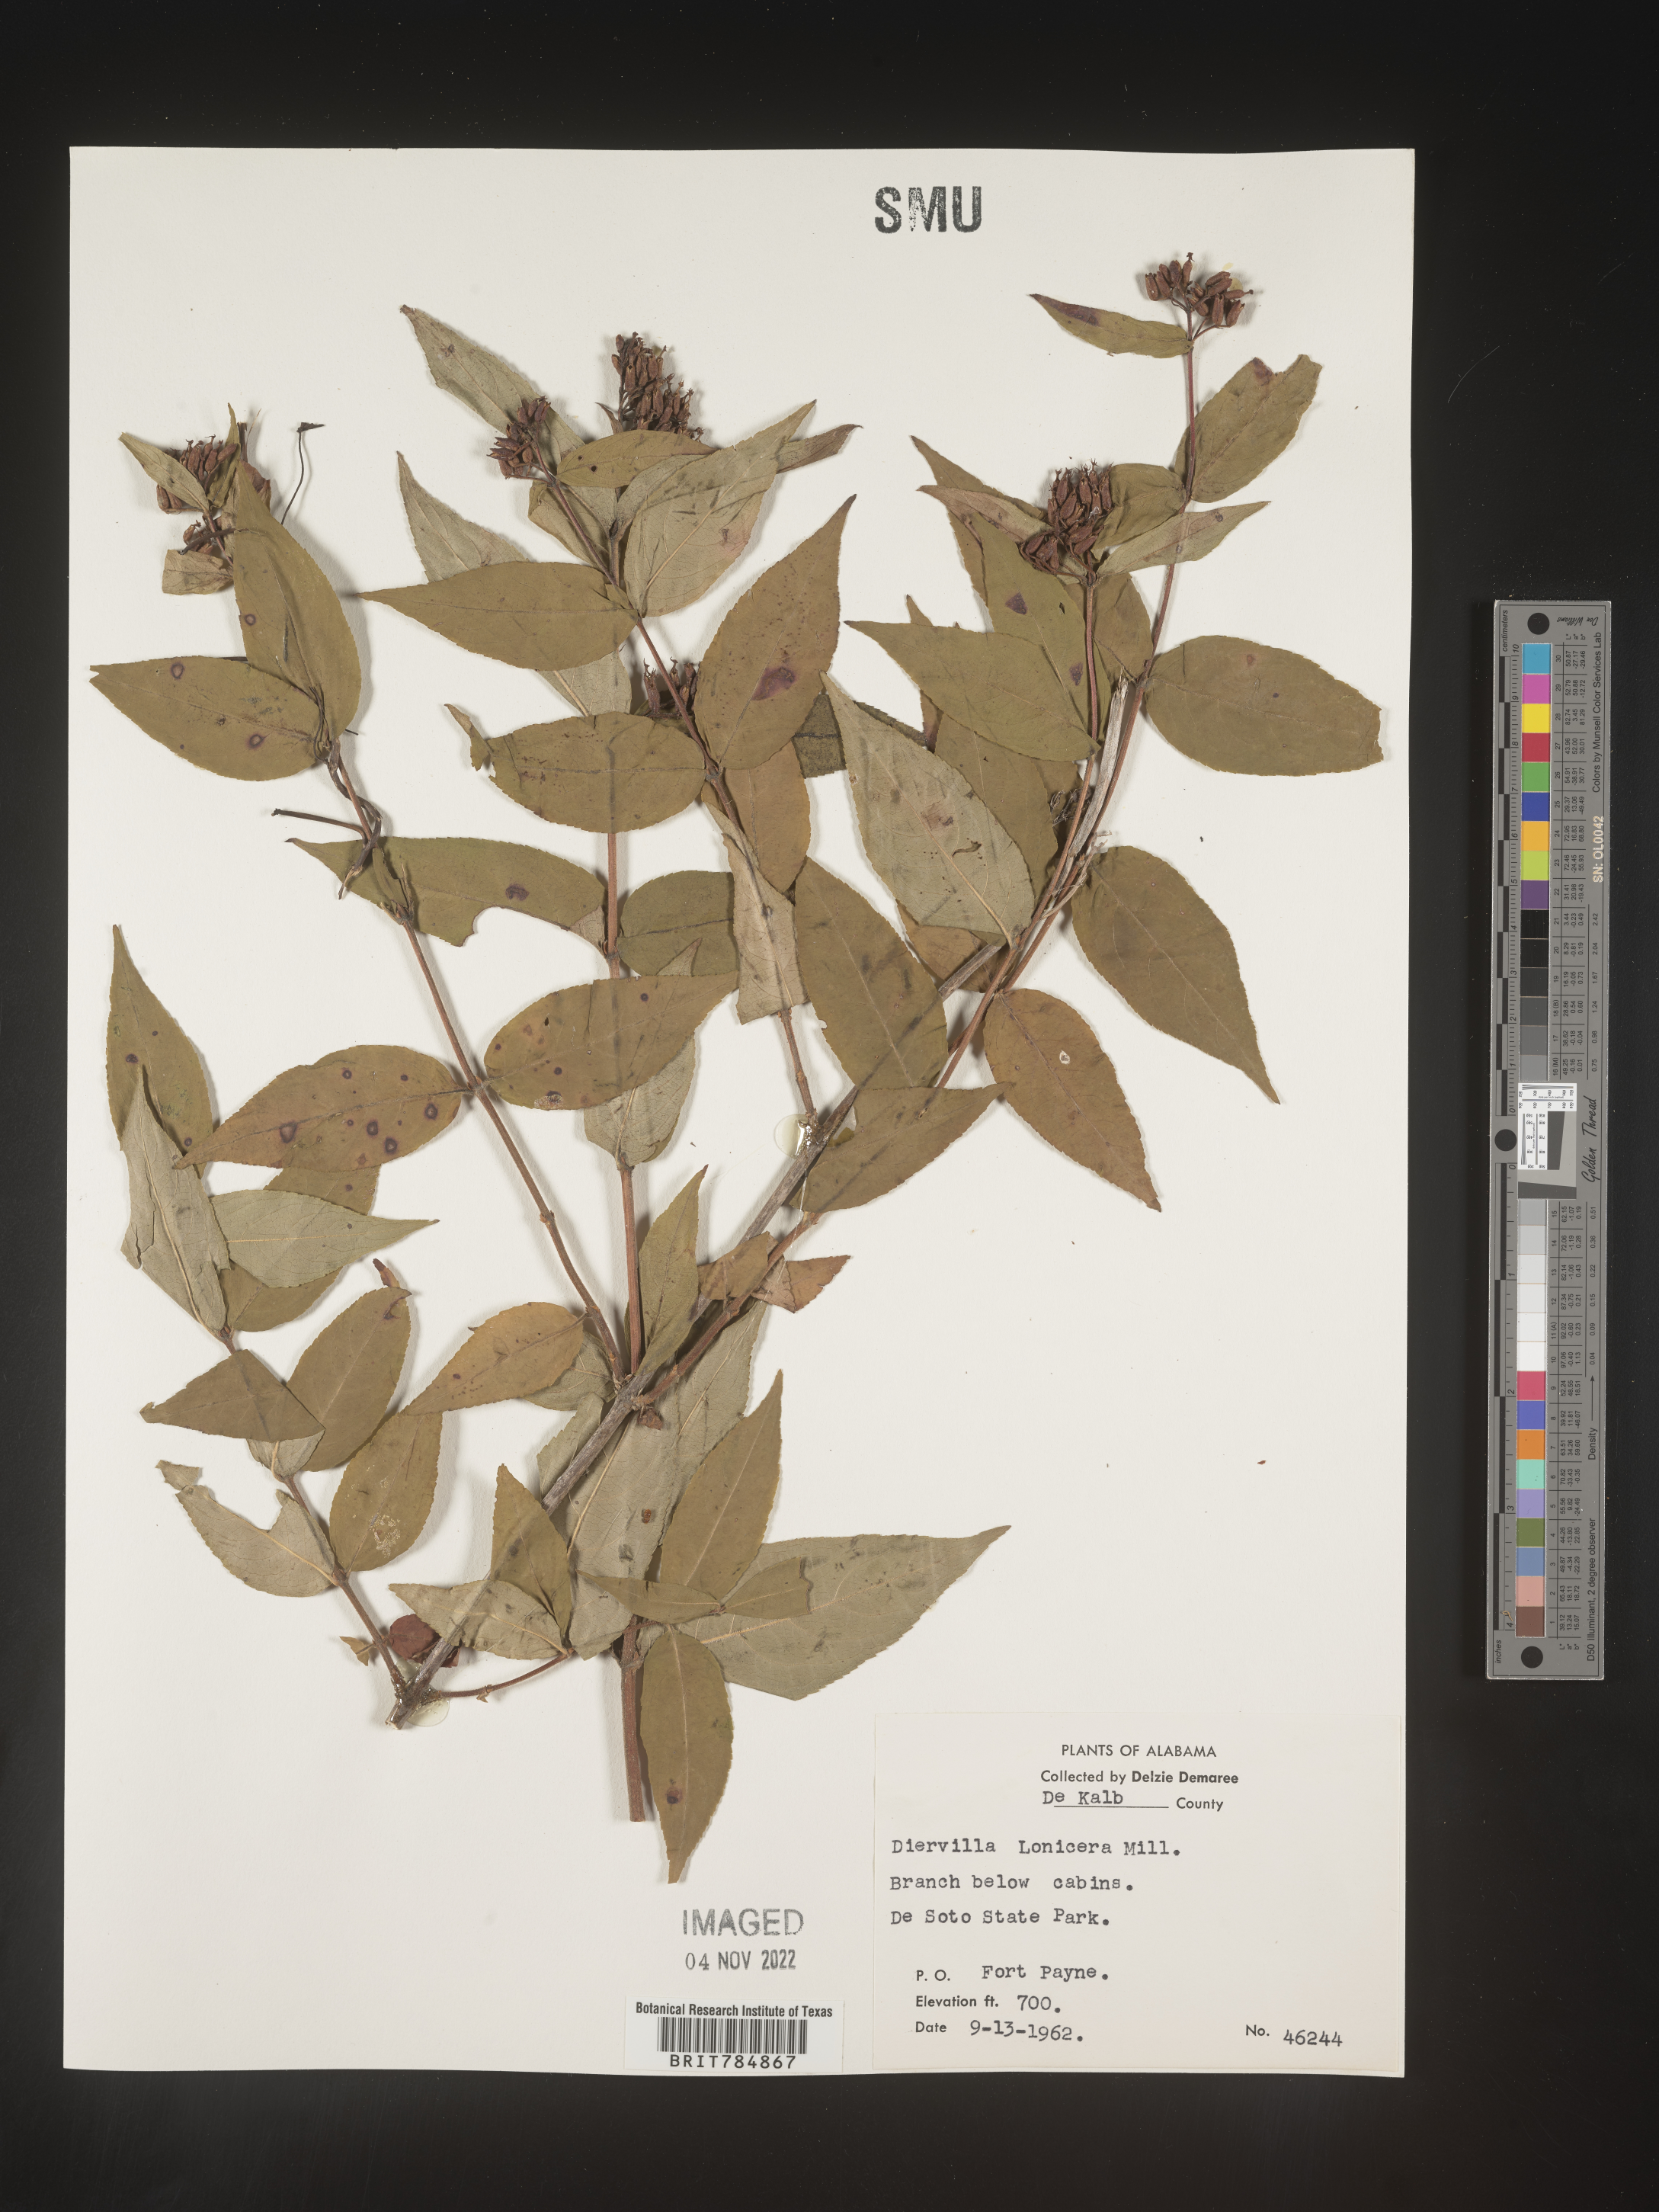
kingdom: Plantae
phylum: Tracheophyta
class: Magnoliopsida
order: Dipsacales
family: Caprifoliaceae
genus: Diervilla
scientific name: Diervilla lonicera
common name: Bush-honeysuckle
